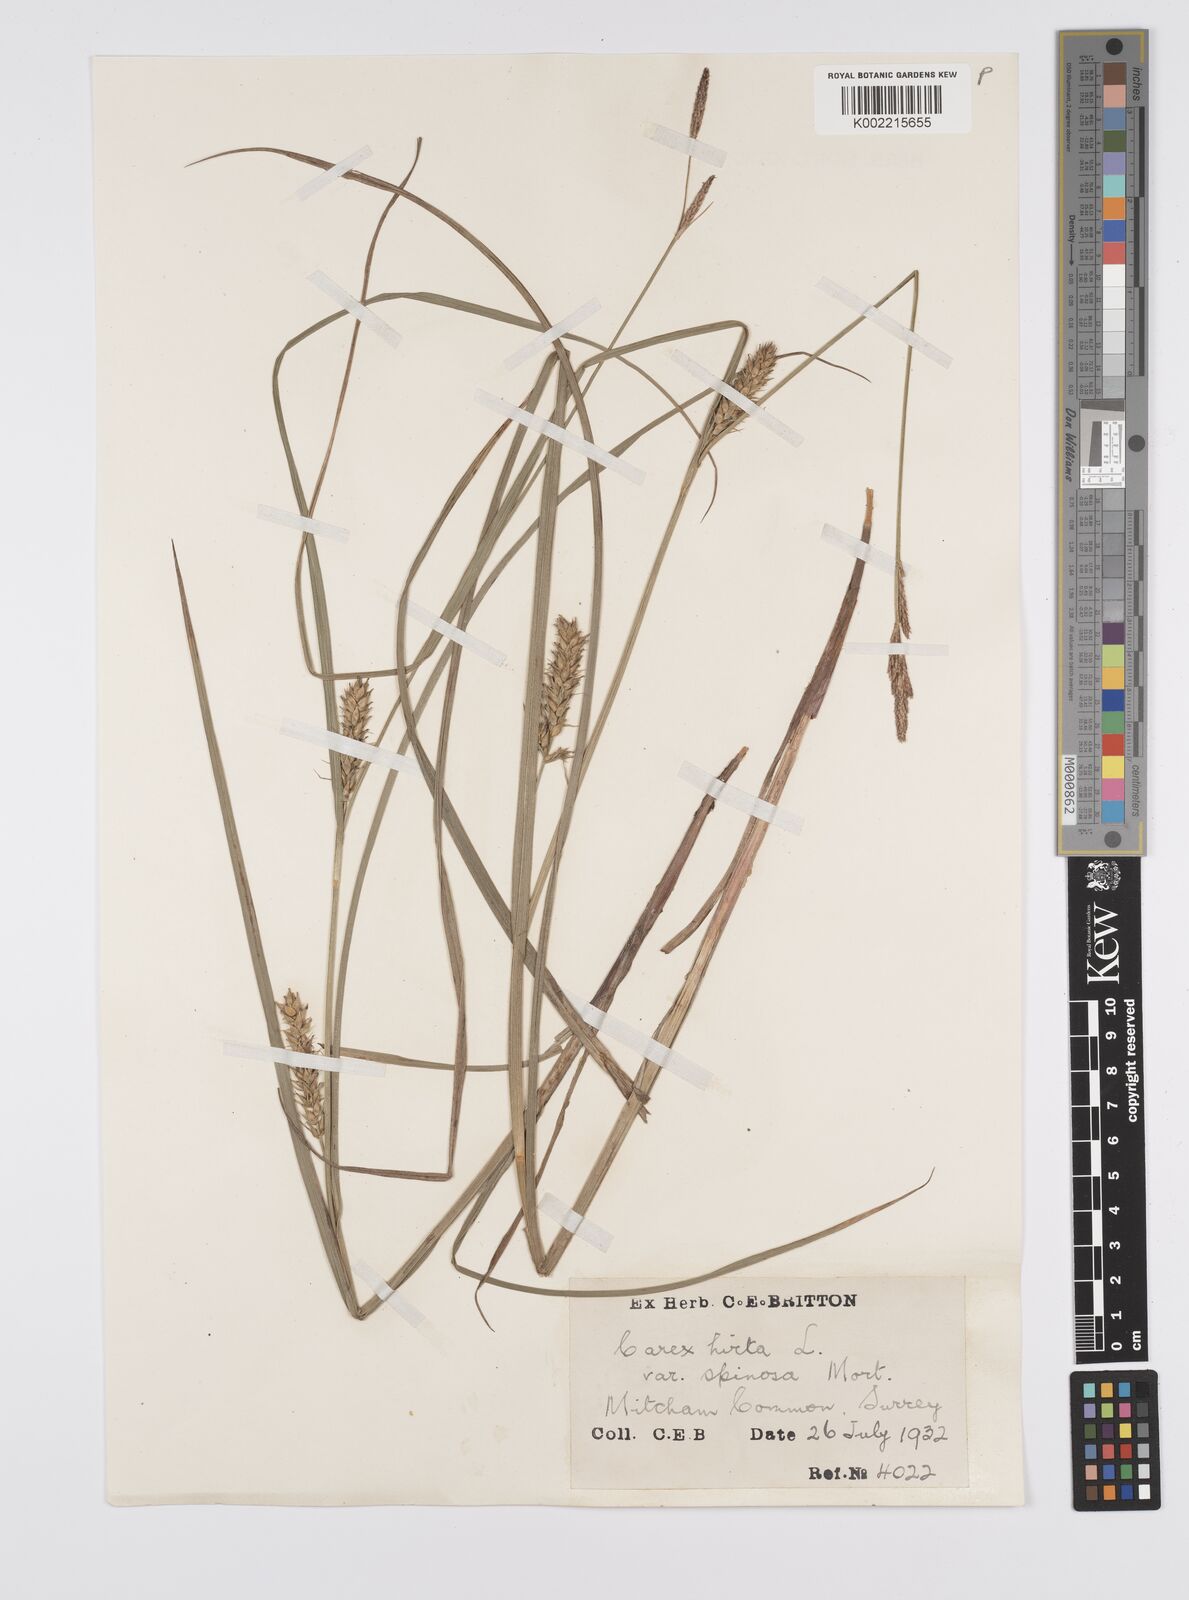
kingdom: Plantae
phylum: Tracheophyta
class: Liliopsida
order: Poales
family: Cyperaceae
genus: Carex
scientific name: Carex hirta
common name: Hairy sedge
